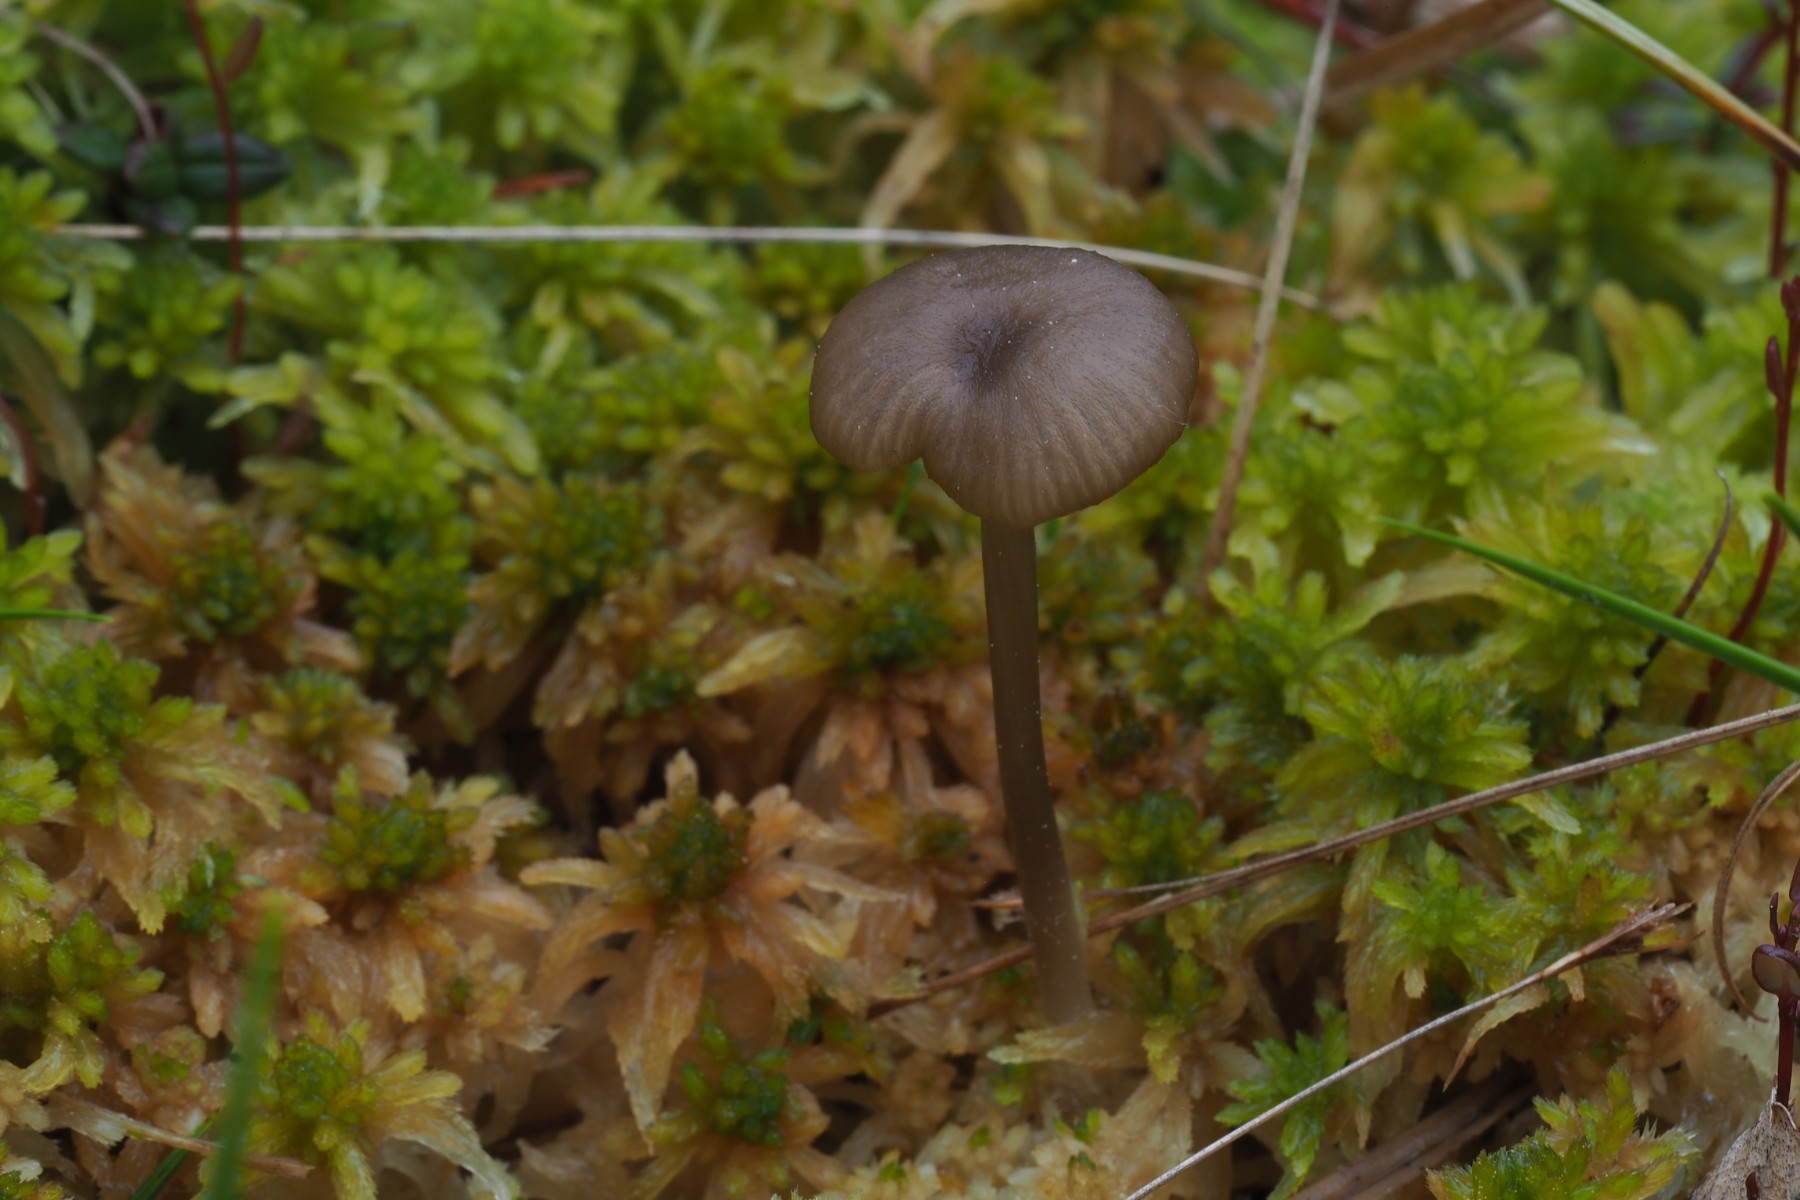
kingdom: Fungi
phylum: Basidiomycota
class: Agaricomycetes
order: Agaricales
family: Lyophyllaceae
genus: Sphagnurus
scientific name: Sphagnurus paluster
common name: tørvemos-gråblad
